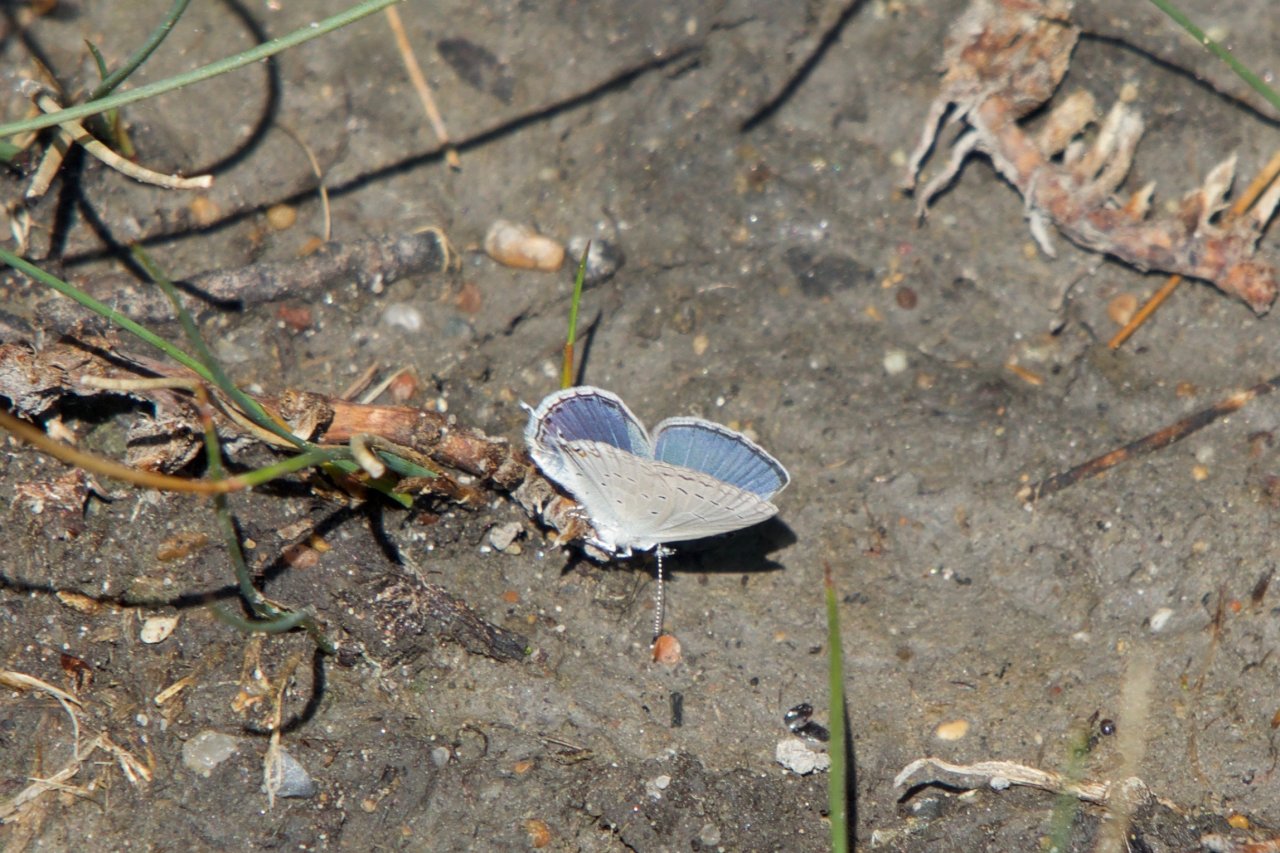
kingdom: Animalia
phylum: Arthropoda
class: Insecta
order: Lepidoptera
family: Lycaenidae
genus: Elkalyce
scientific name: Elkalyce amyntula
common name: Western Tailed-Blue
